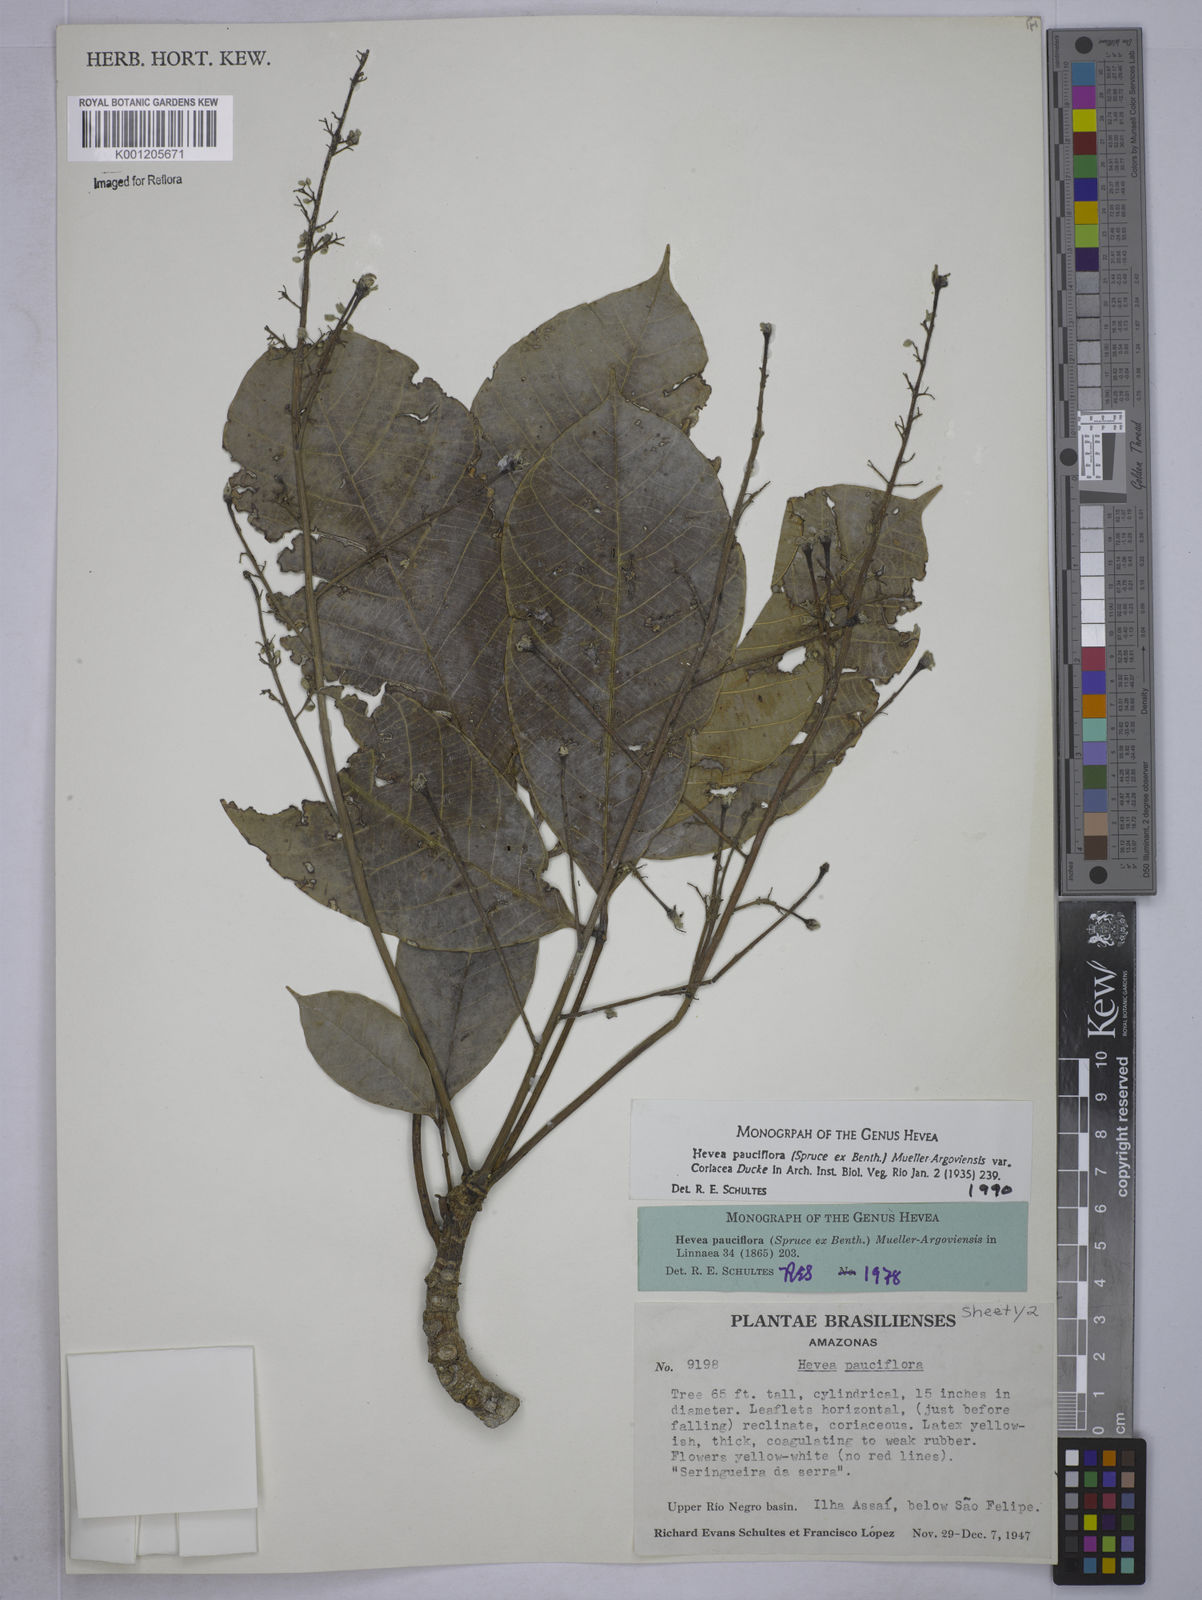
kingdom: Plantae
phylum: Tracheophyta
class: Magnoliopsida
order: Malpighiales
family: Euphorbiaceae
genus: Hevea
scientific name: Hevea pauciflora
